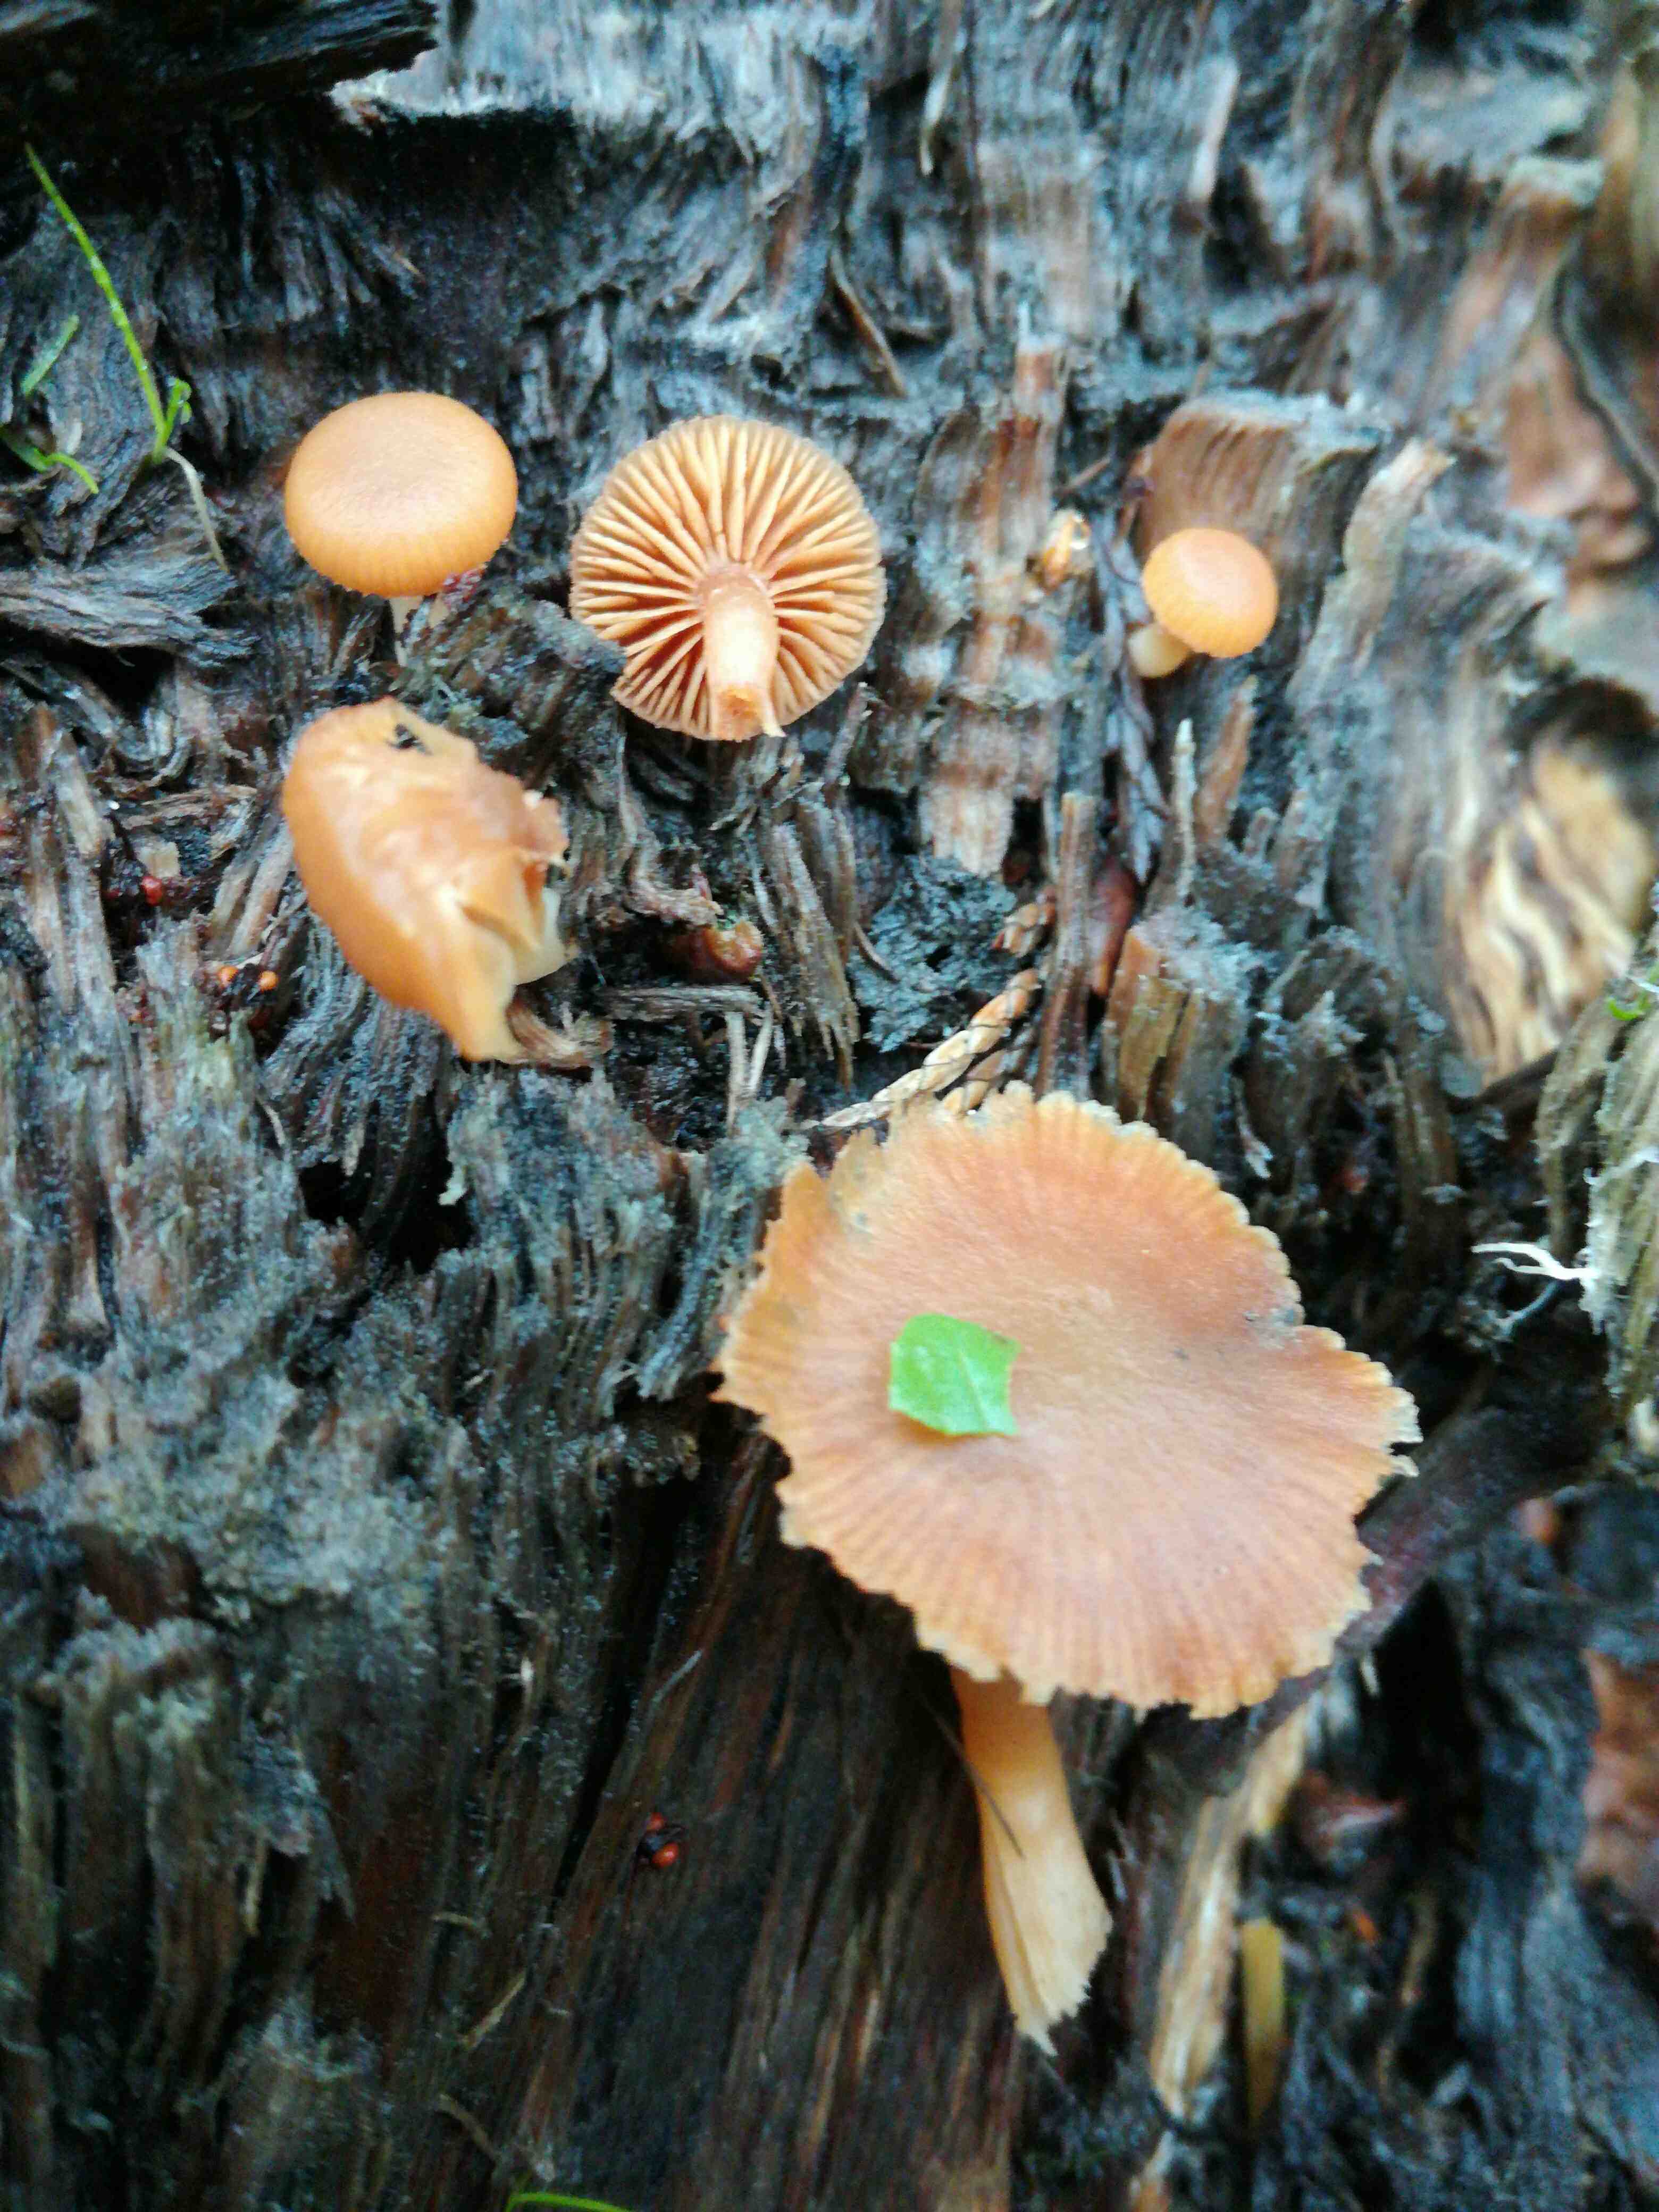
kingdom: Fungi
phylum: Basidiomycota
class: Agaricomycetes
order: Agaricales
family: Tubariaceae
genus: Tubaria
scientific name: Tubaria furfuracea
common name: kliddet fnughat
